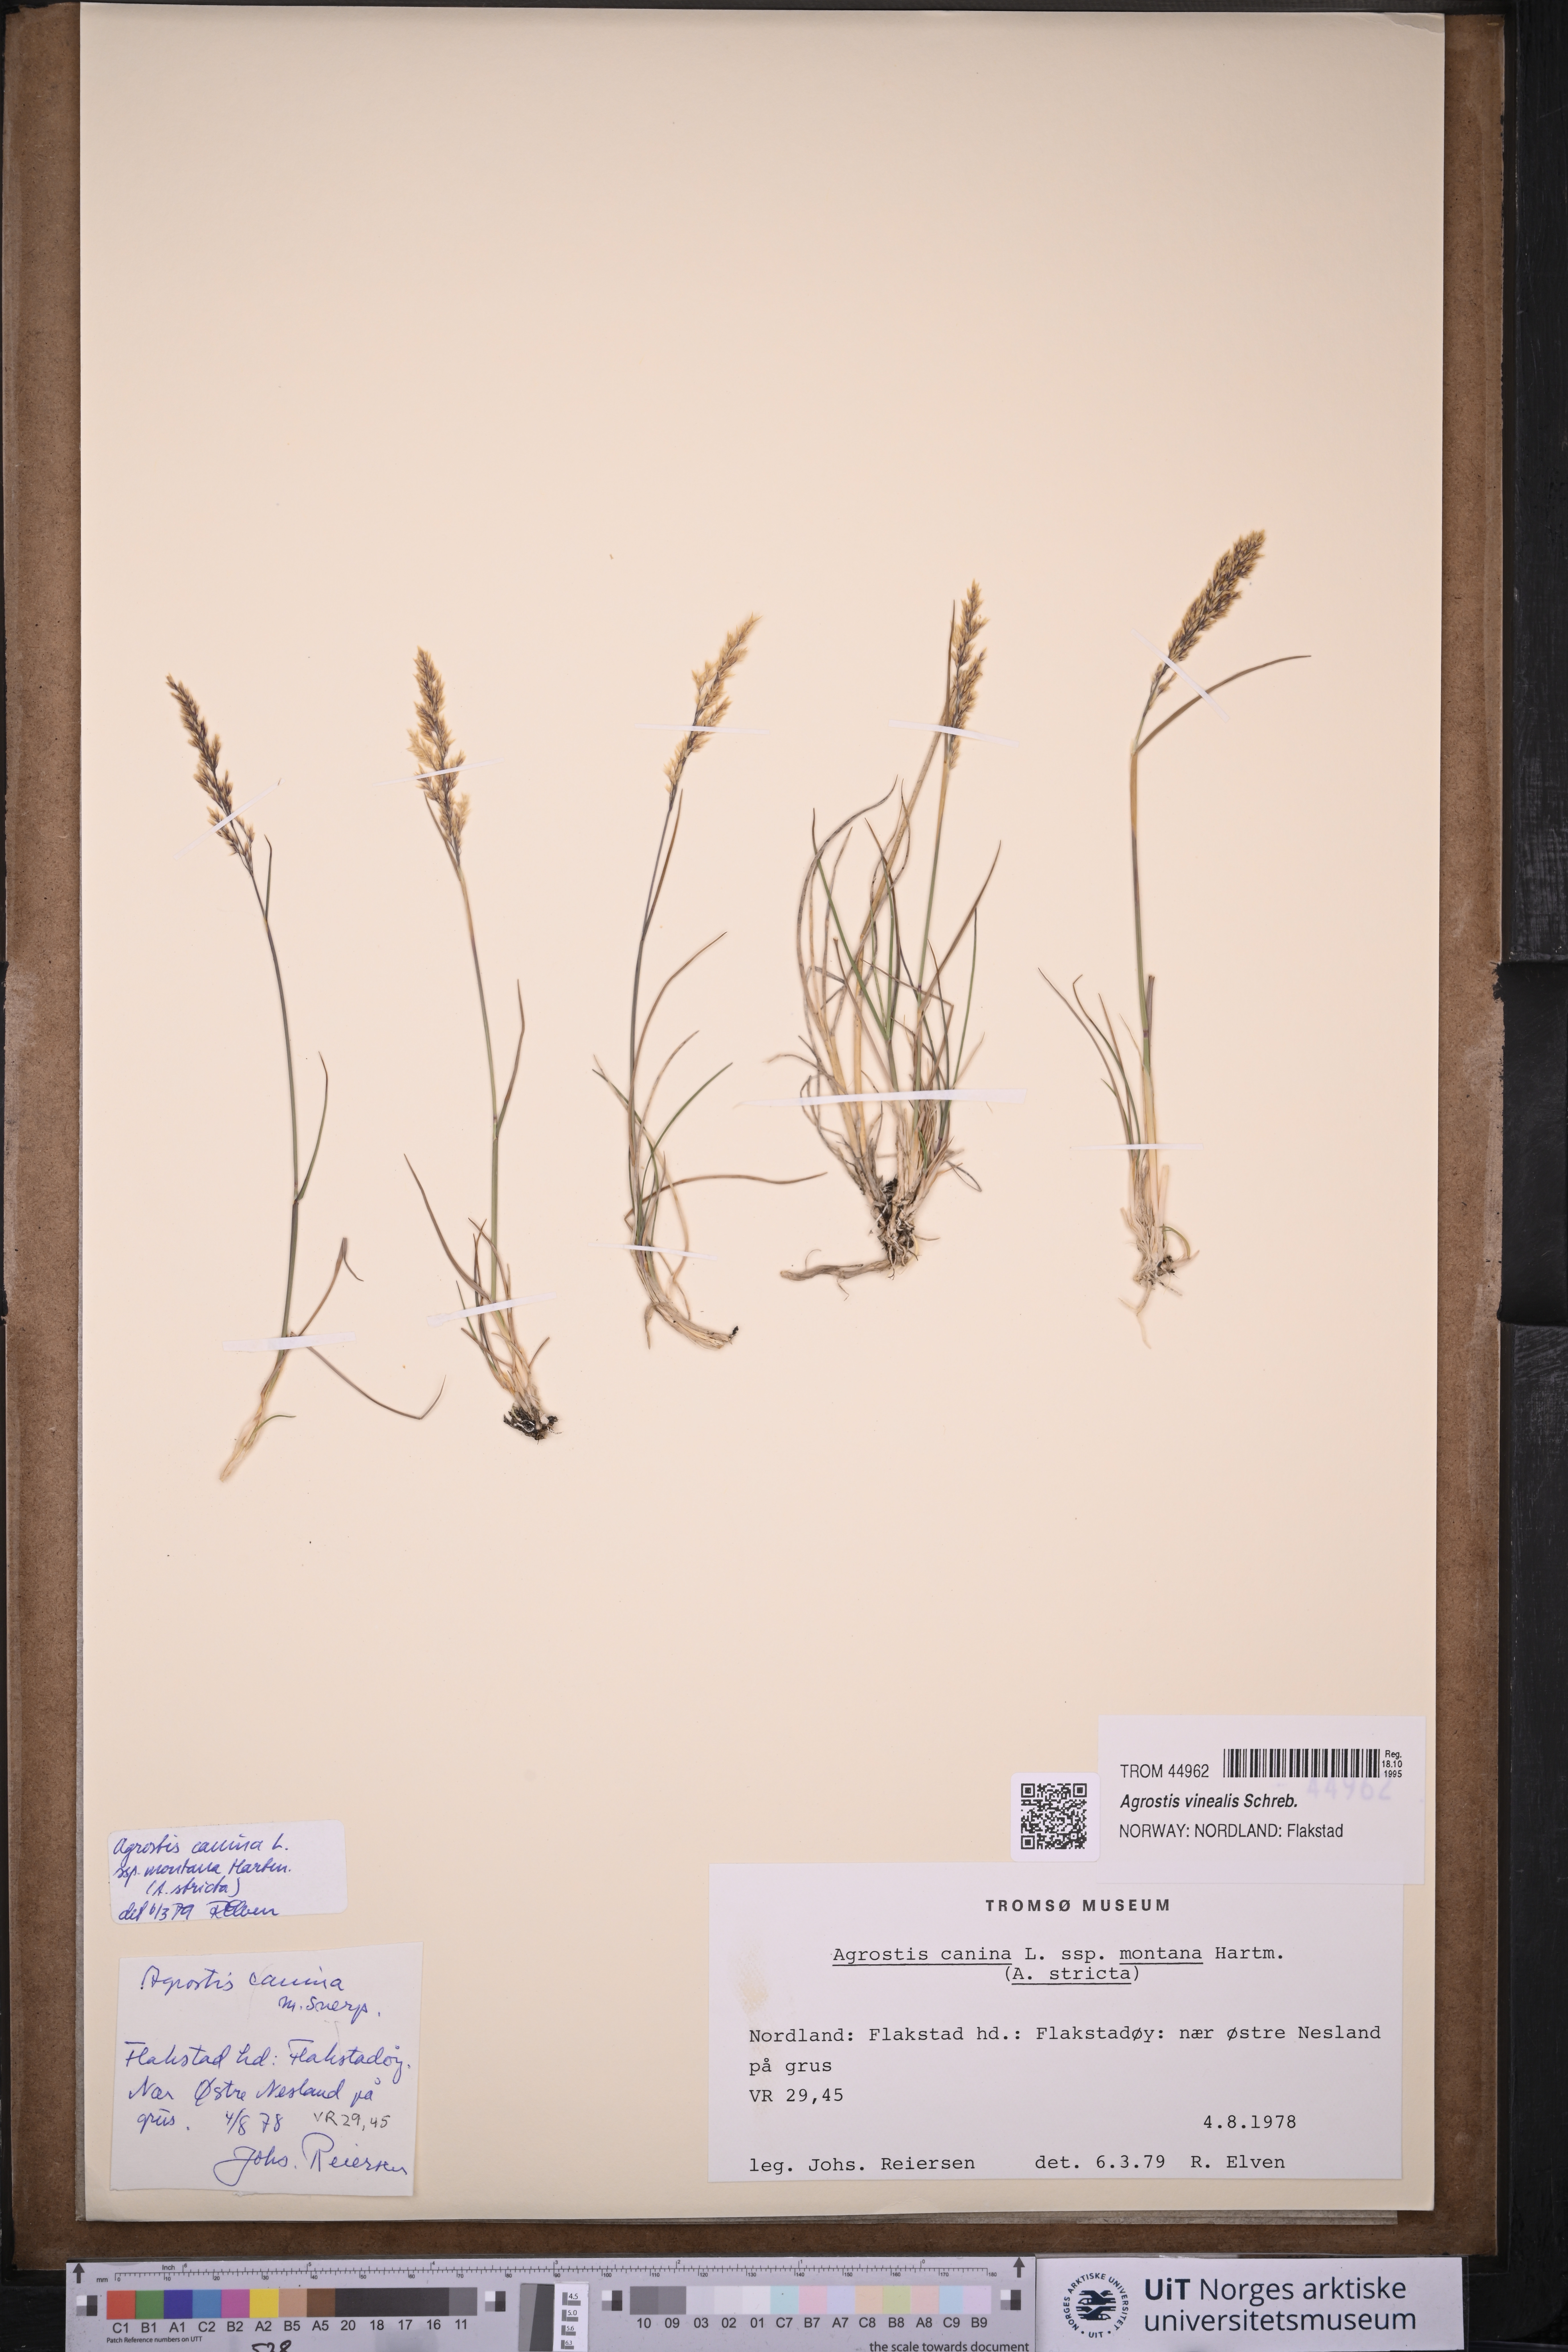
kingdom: Plantae
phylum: Tracheophyta
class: Liliopsida
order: Poales
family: Poaceae
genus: Agrostis
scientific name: Agrostis vinealis
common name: Brown bent
